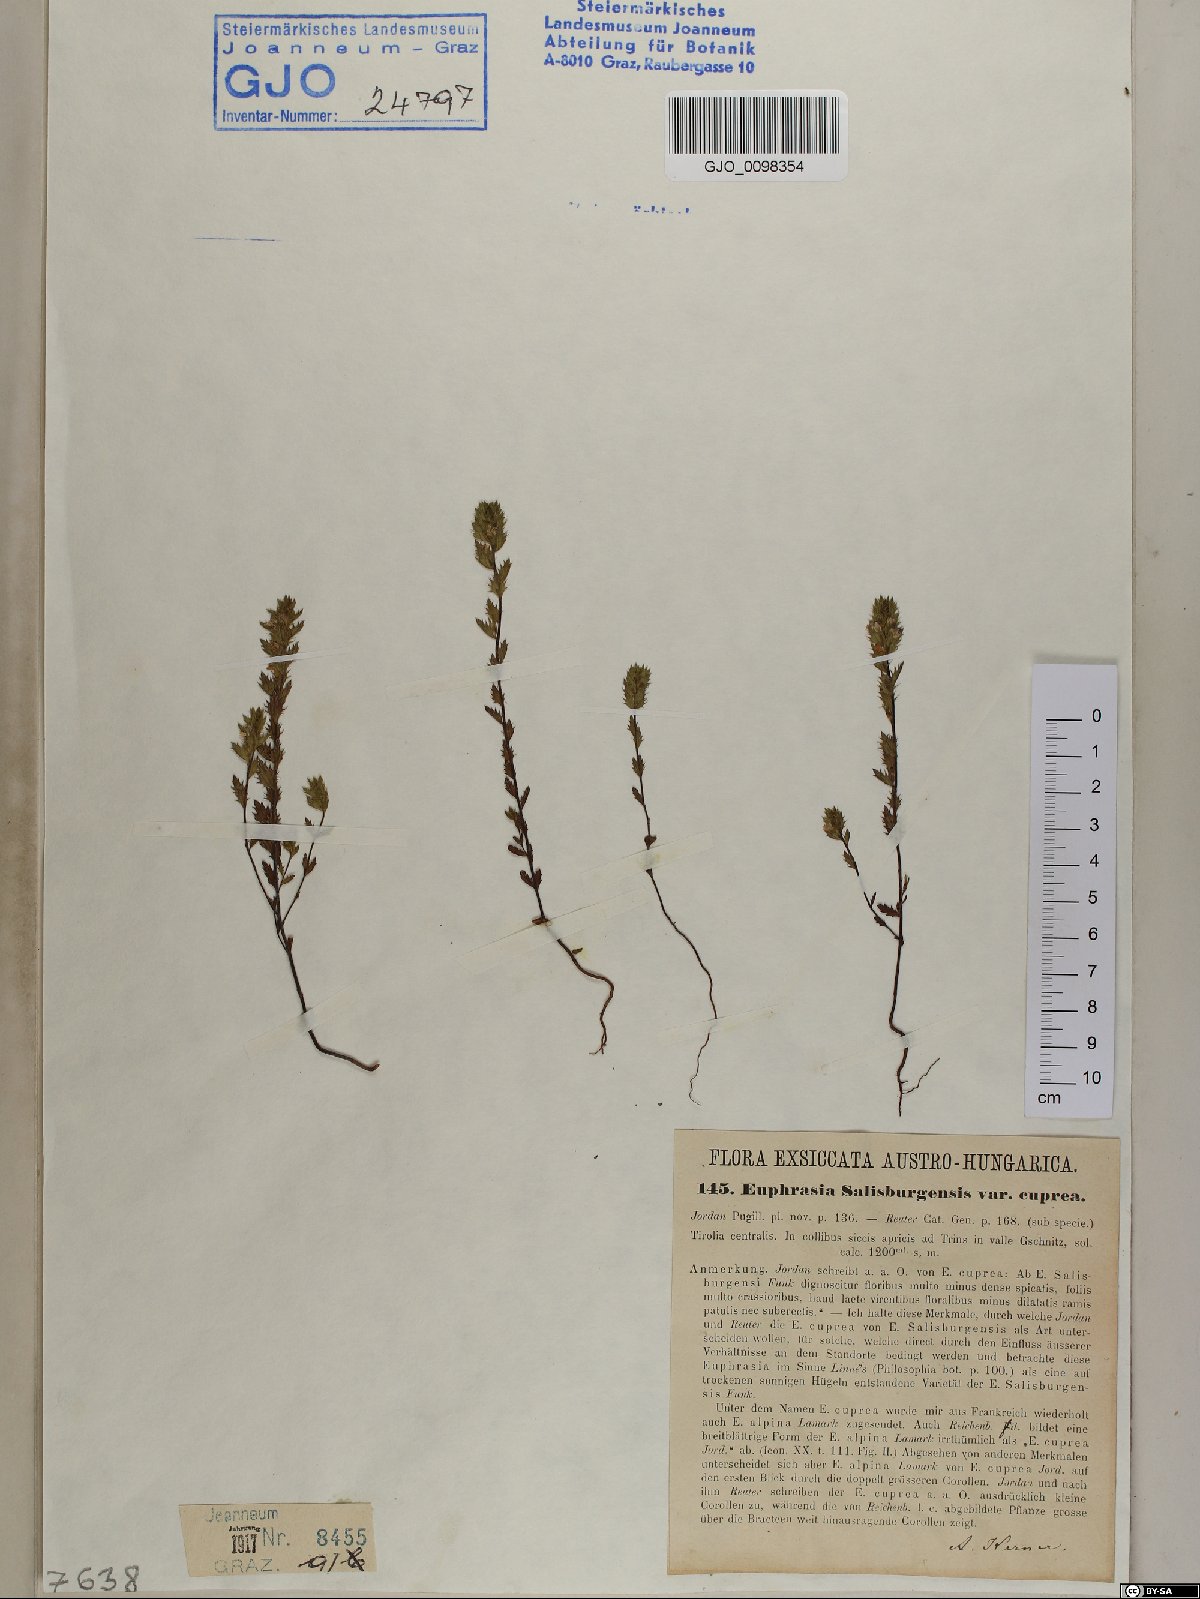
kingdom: Plantae
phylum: Tracheophyta
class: Magnoliopsida
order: Lamiales
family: Orobanchaceae
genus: Euphrasia
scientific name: Euphrasia officinalis
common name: Eyebright
